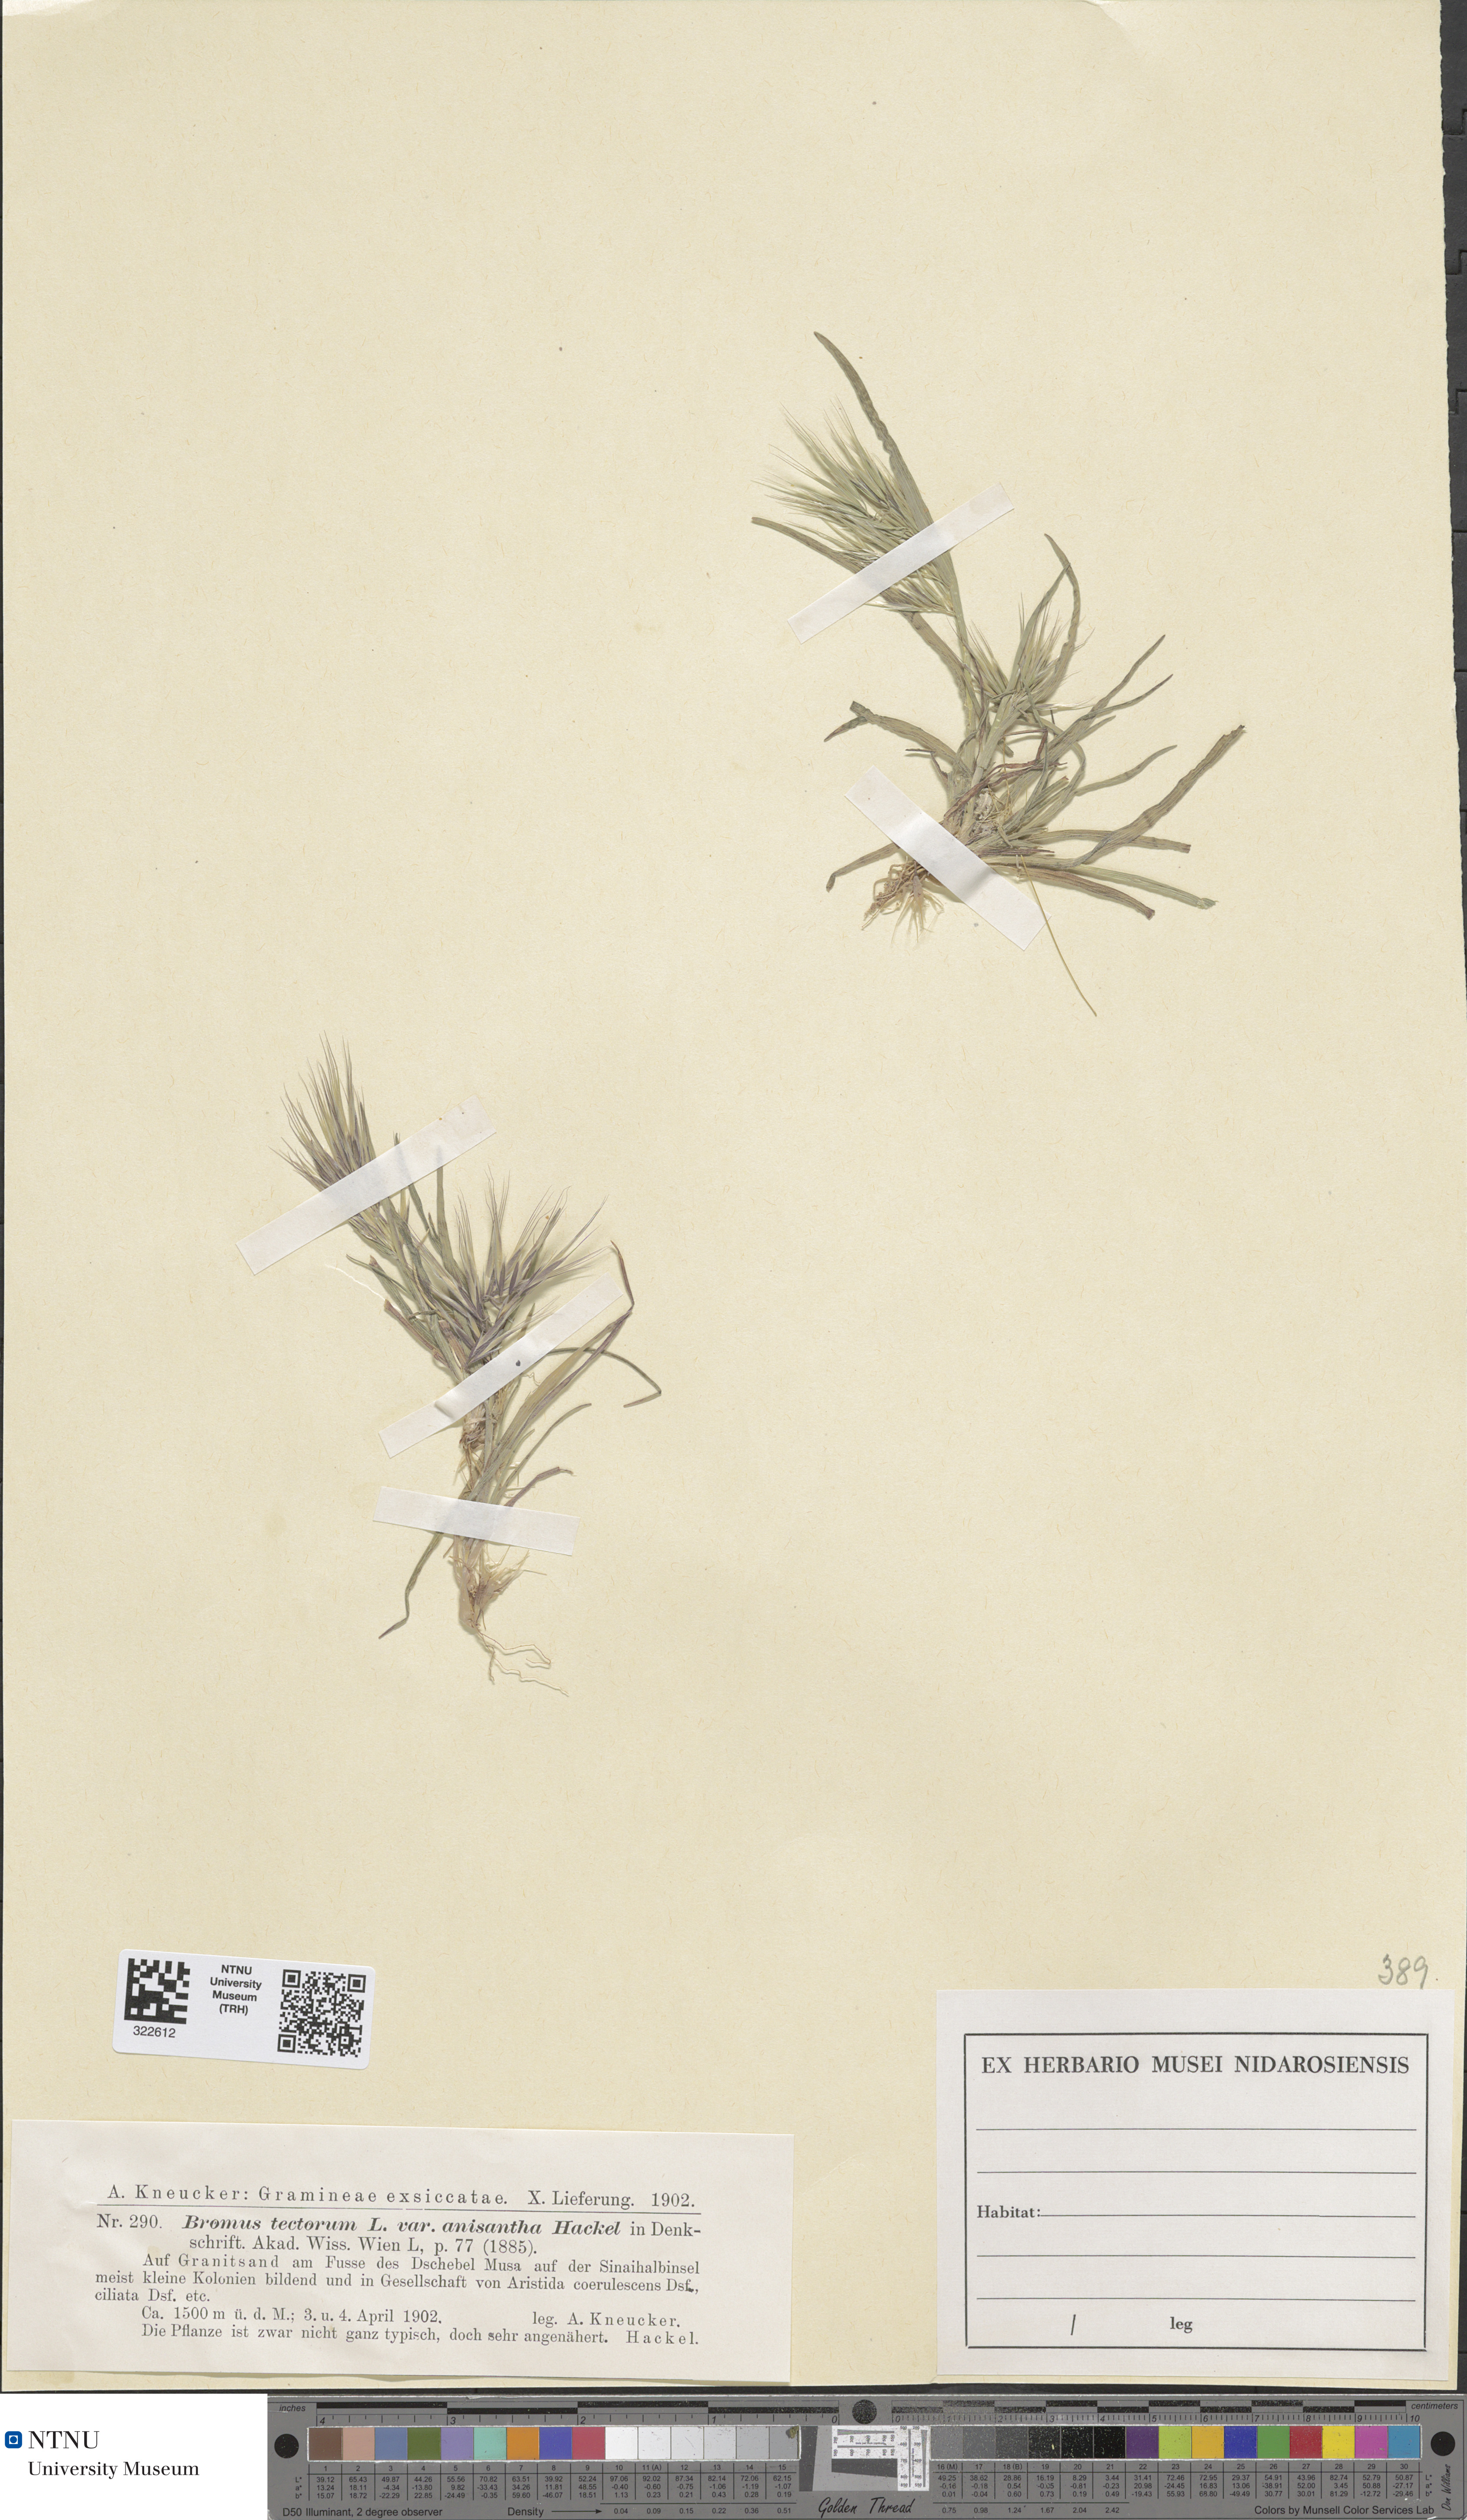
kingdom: Plantae
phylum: Tracheophyta
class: Liliopsida
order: Poales
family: Poaceae
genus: Bromus
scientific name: Bromus tectorum
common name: Cheatgrass
